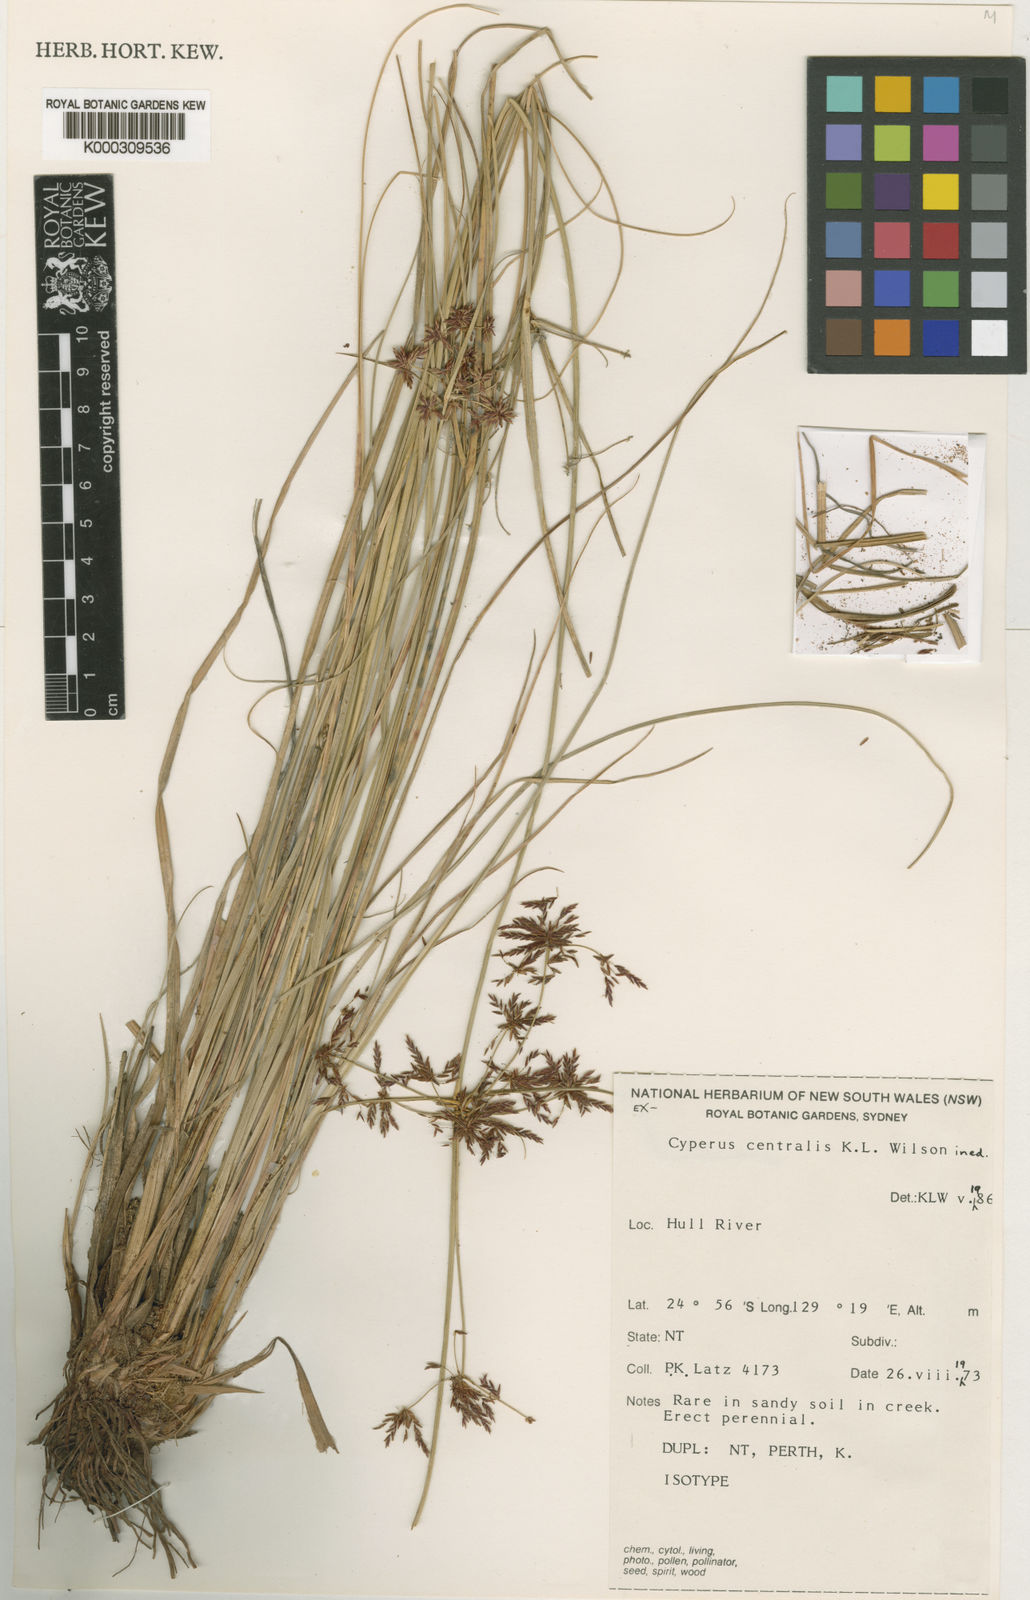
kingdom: Plantae
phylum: Tracheophyta
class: Liliopsida
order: Poales
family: Cyperaceae
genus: Cyperus
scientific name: Cyperus centralis
